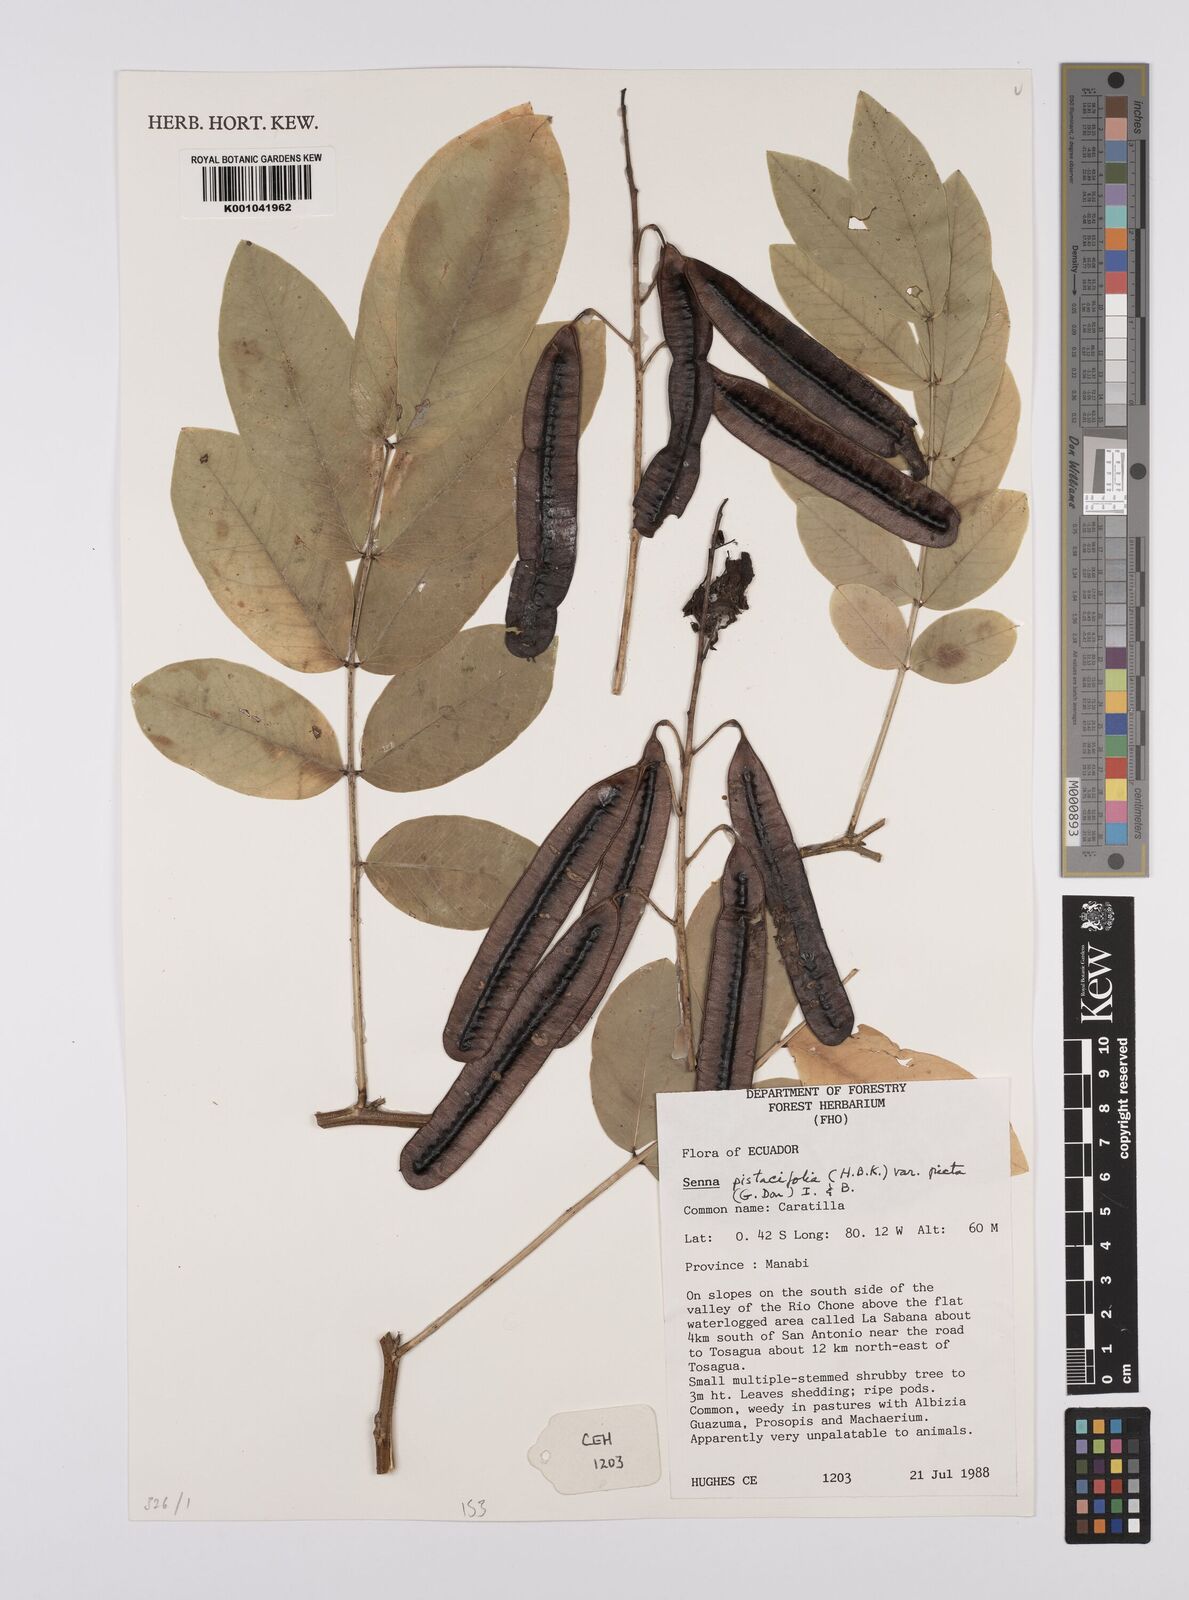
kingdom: Plantae
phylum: Tracheophyta
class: Magnoliopsida
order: Fabales
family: Fabaceae
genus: Senna
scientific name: Senna pistaciifolia
